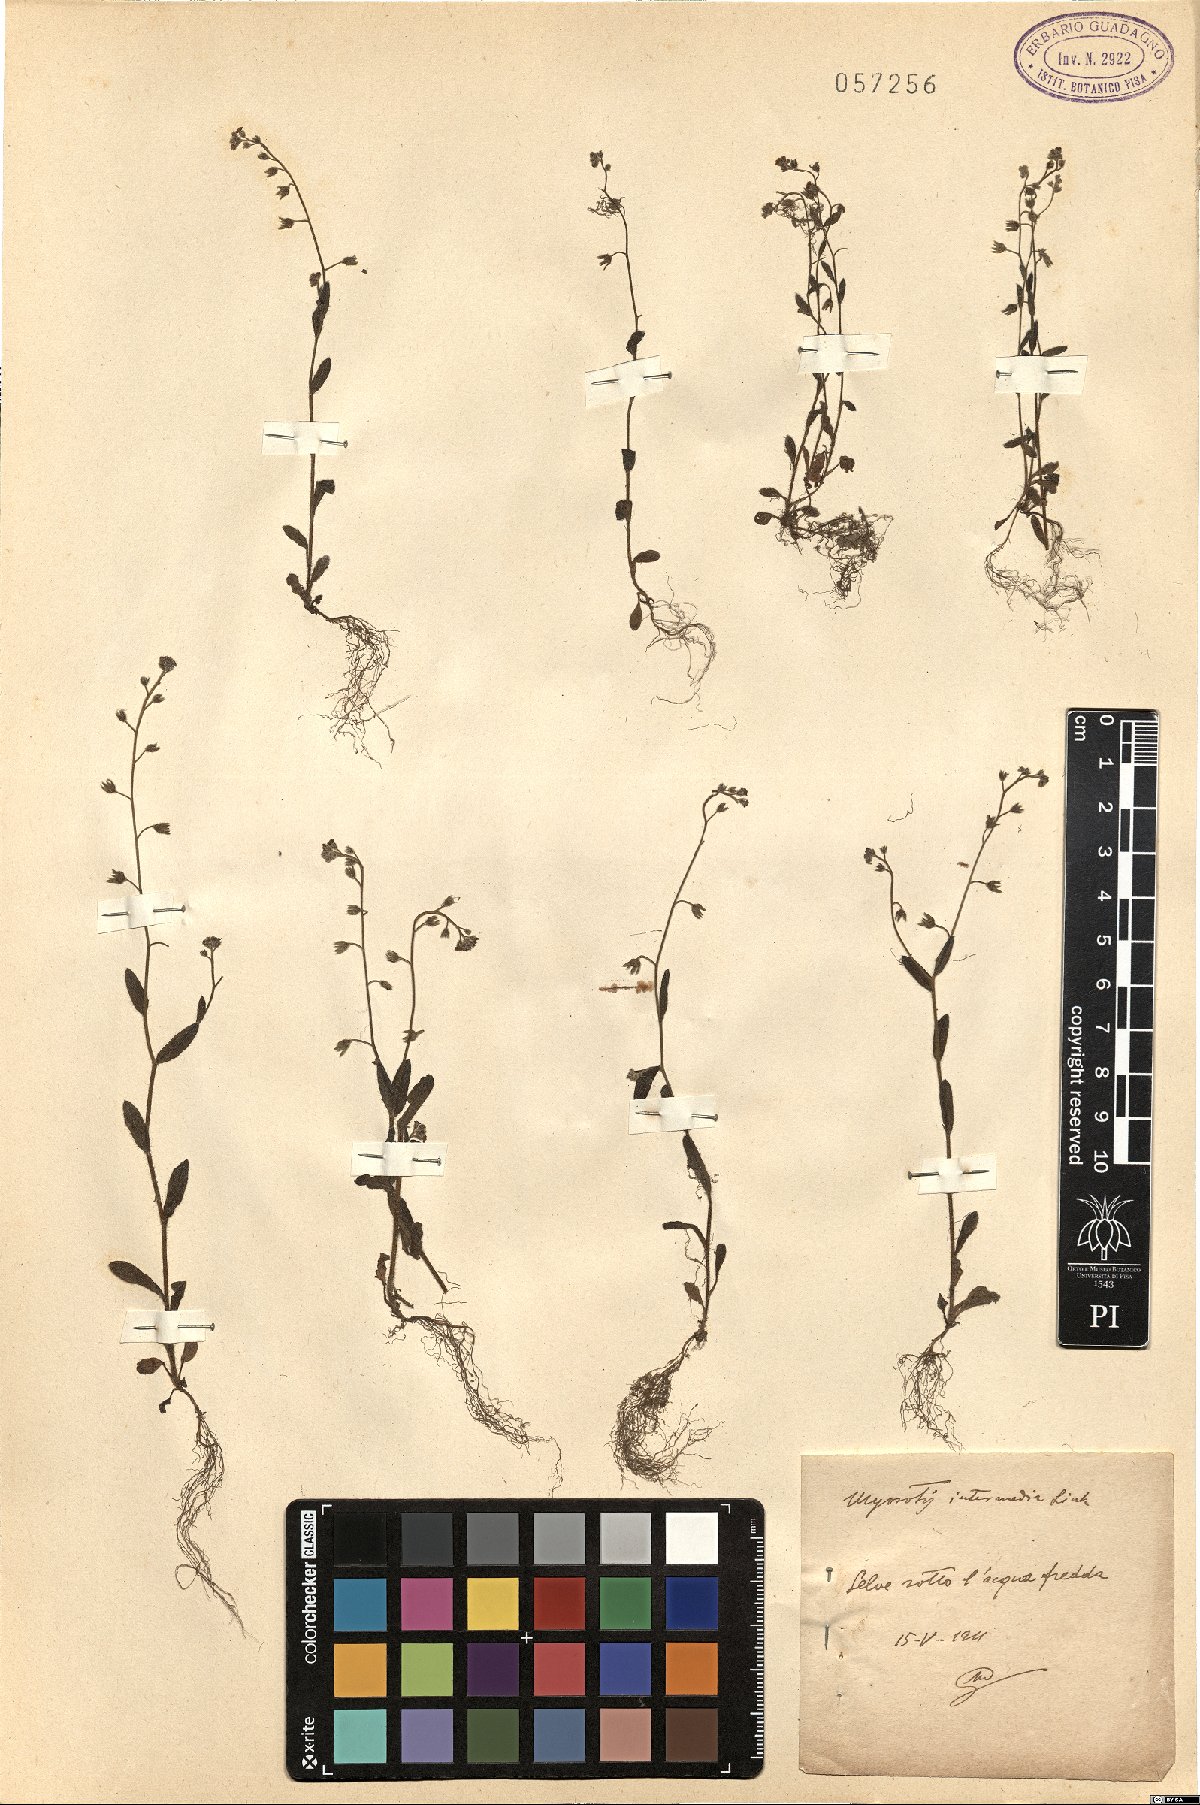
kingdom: Plantae
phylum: Tracheophyta
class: Magnoliopsida
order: Boraginales
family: Boraginaceae
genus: Myosotis
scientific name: Myosotis arvensis
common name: Field forget-me-not
